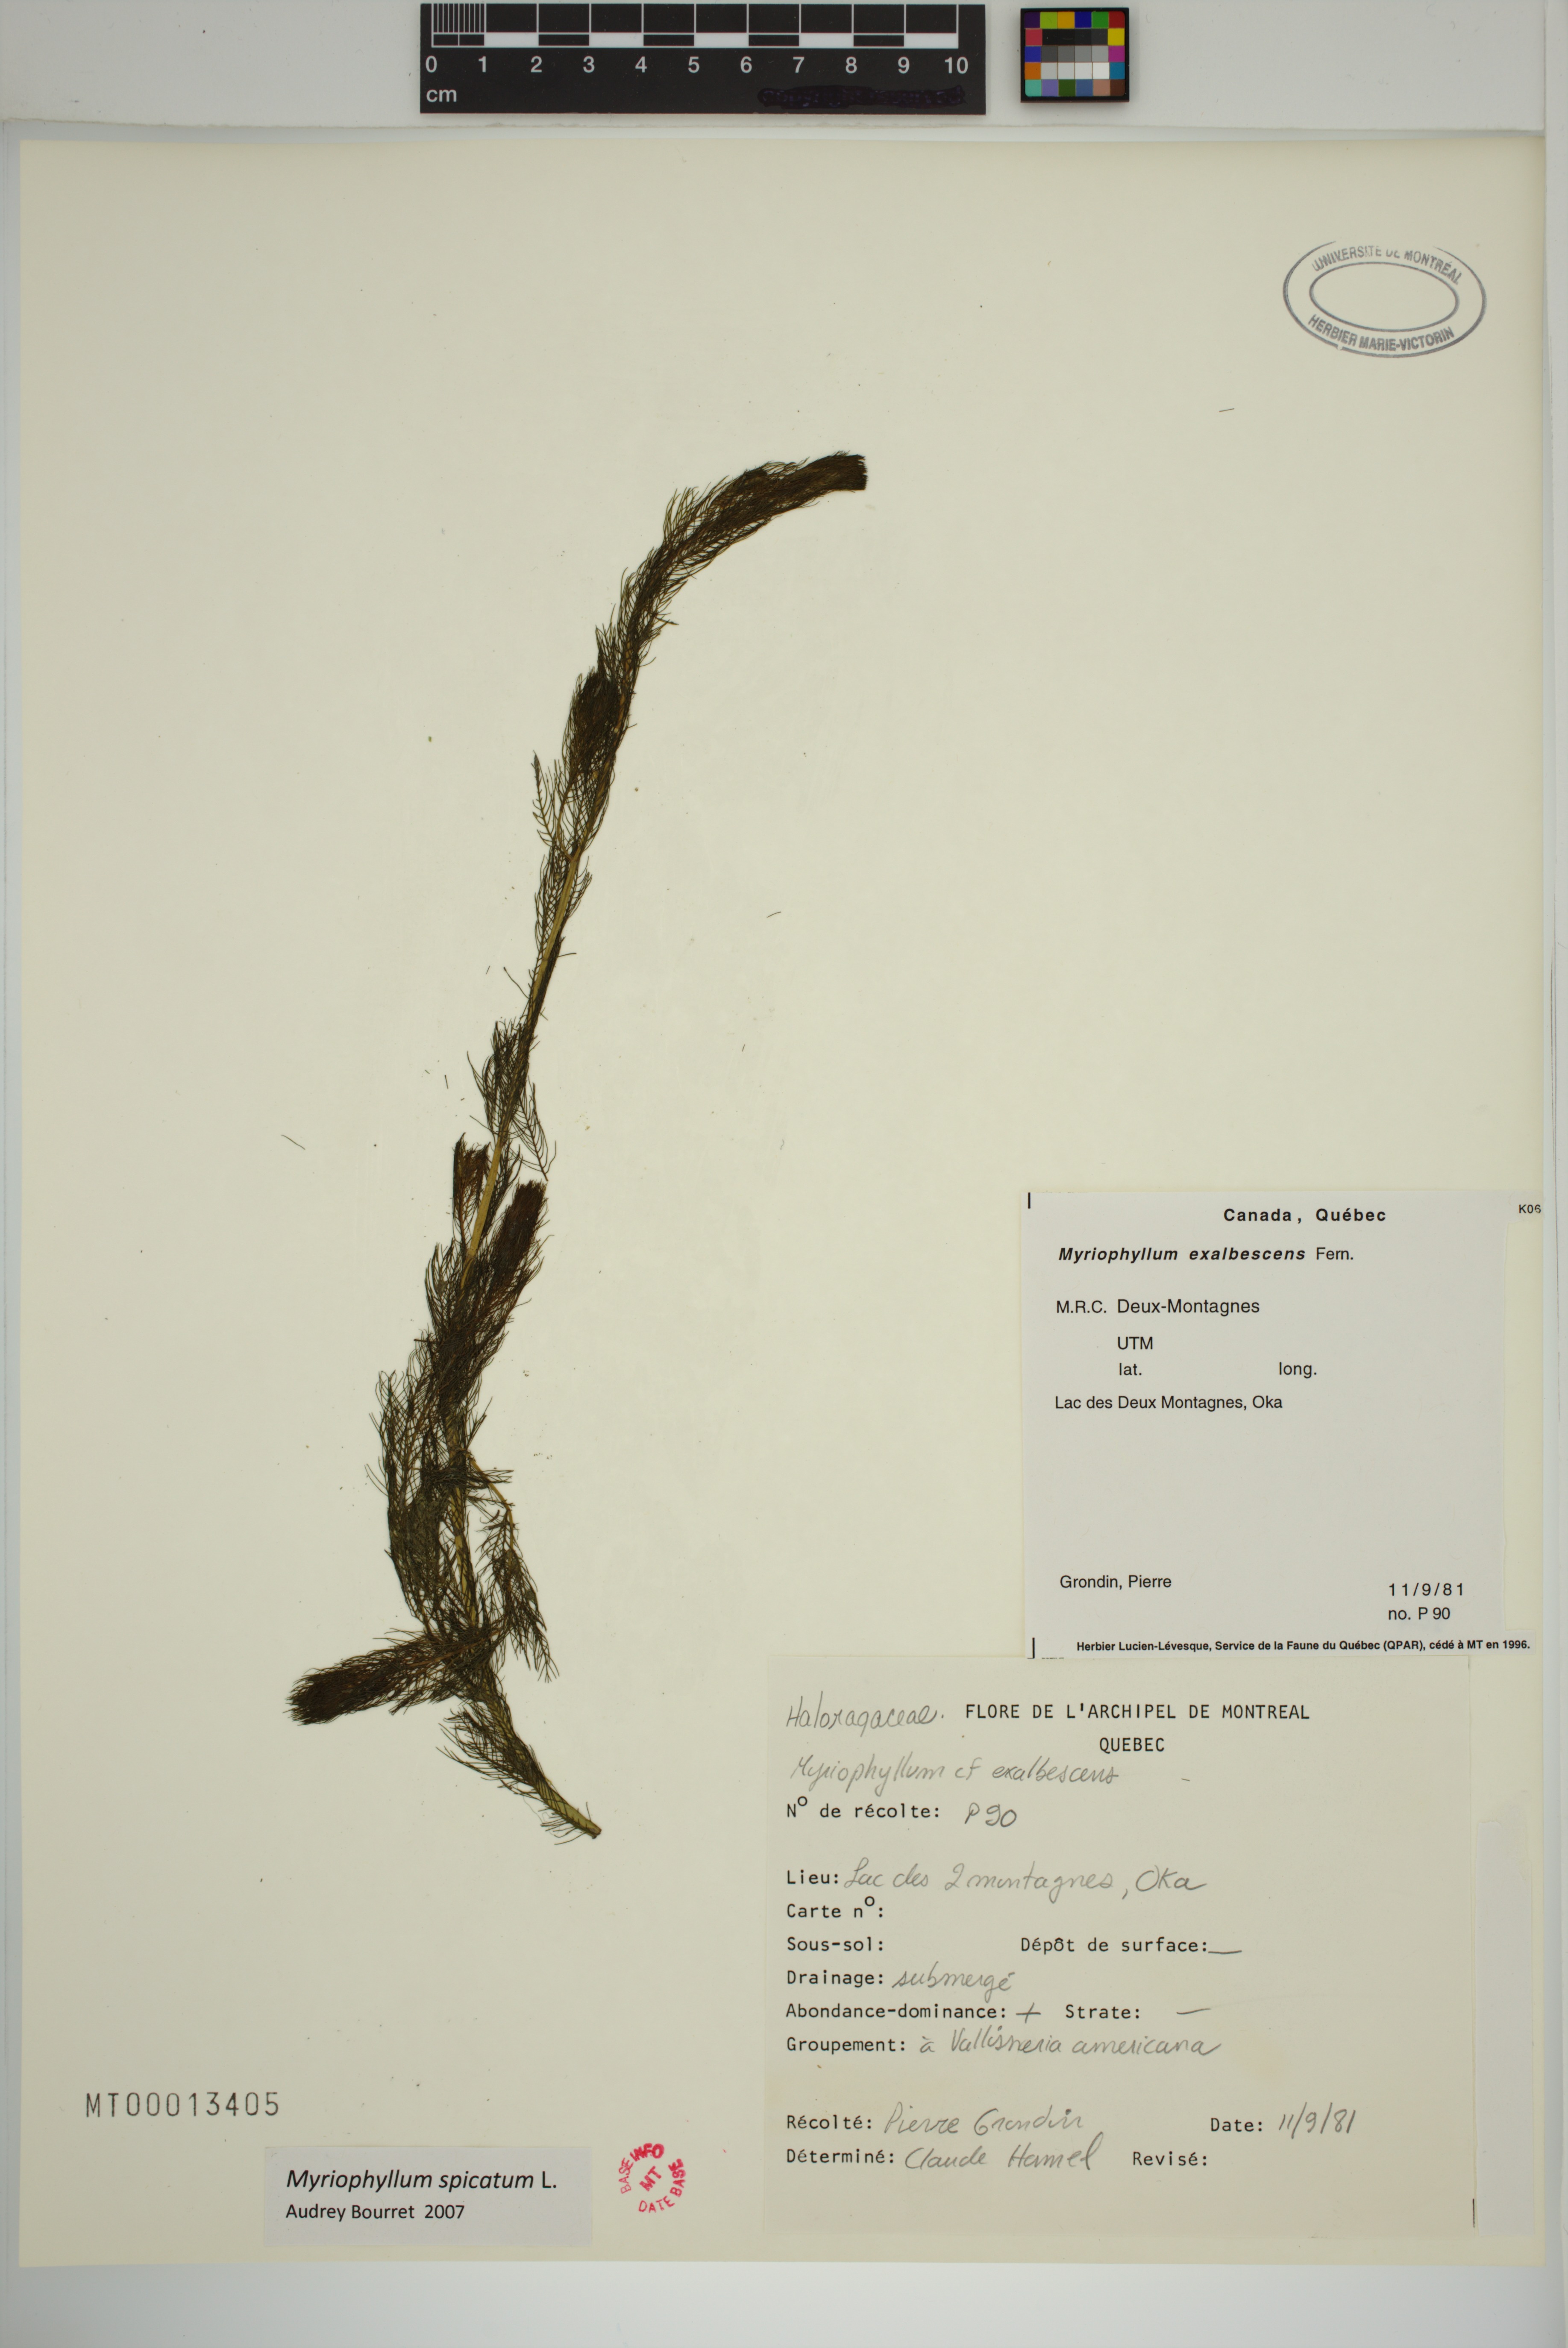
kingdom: Plantae
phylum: Tracheophyta
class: Magnoliopsida
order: Saxifragales
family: Haloragaceae
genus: Myriophyllum
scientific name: Myriophyllum spicatum
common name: Spiked water-milfoil
